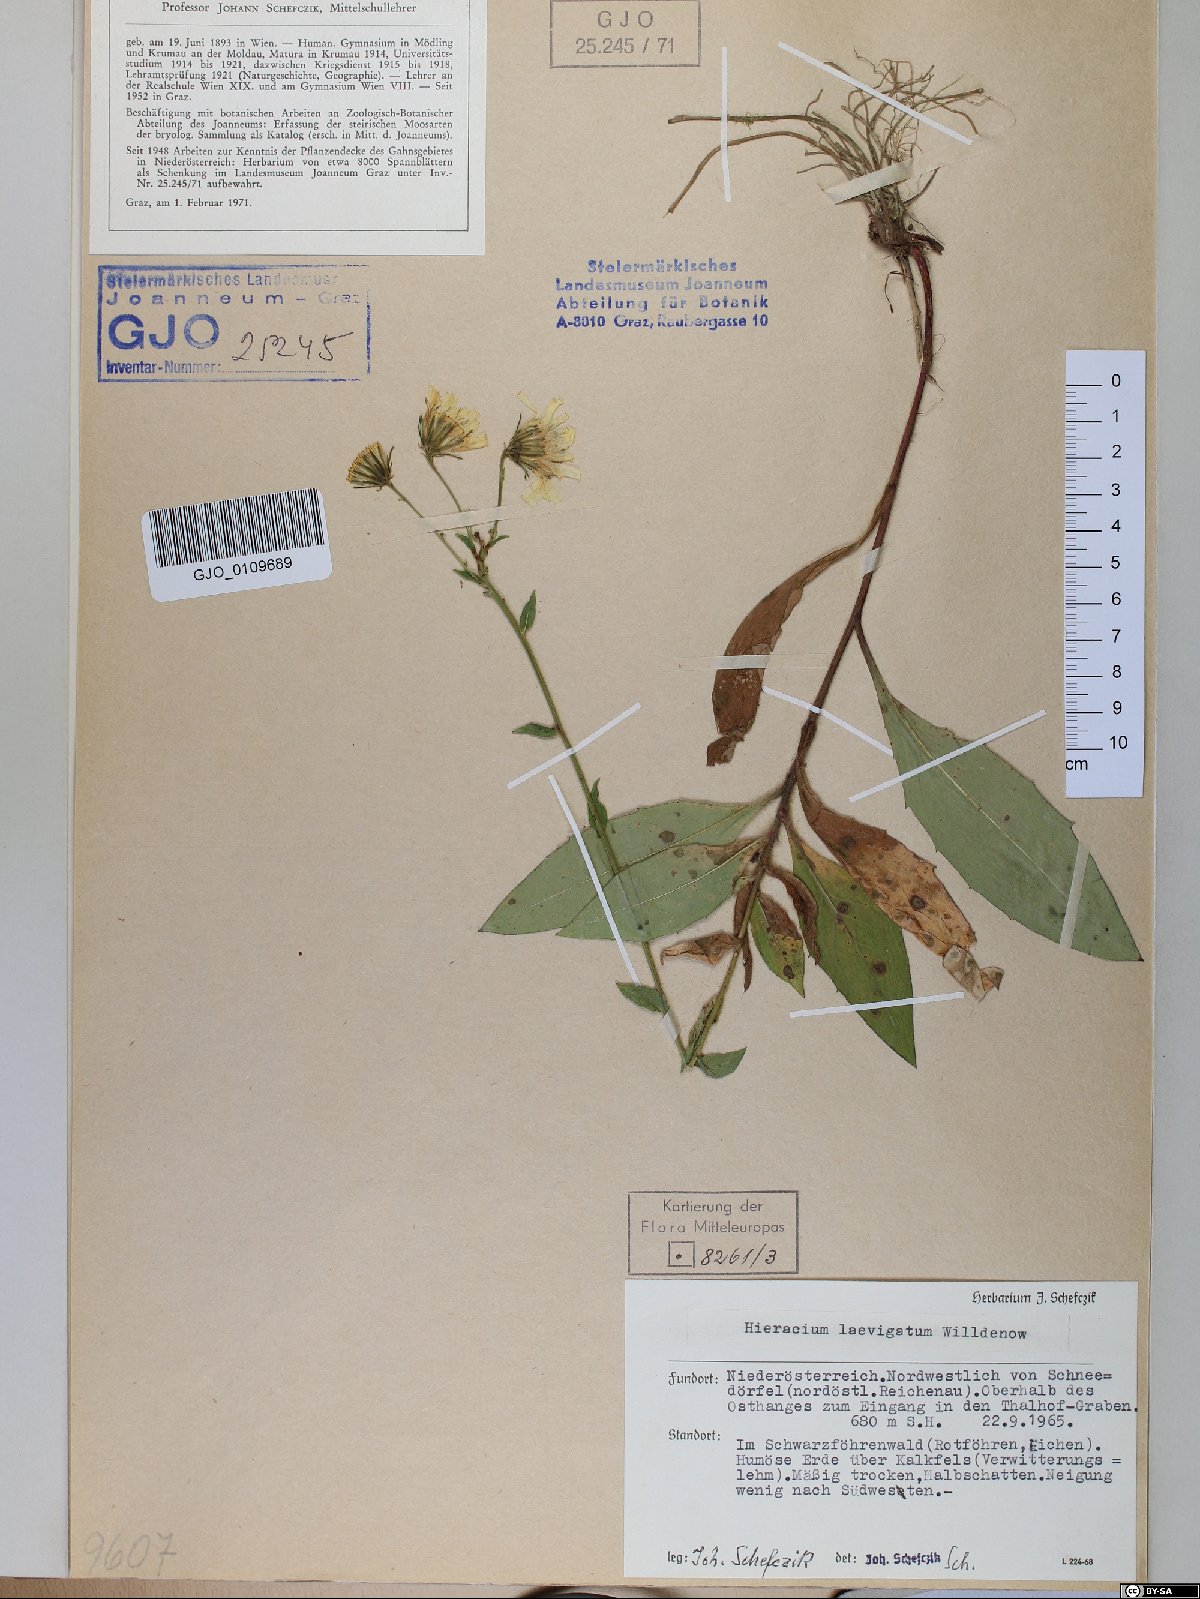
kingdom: Plantae
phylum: Tracheophyta
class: Magnoliopsida
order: Asterales
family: Asteraceae
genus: Hieracium
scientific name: Hieracium racemosum
